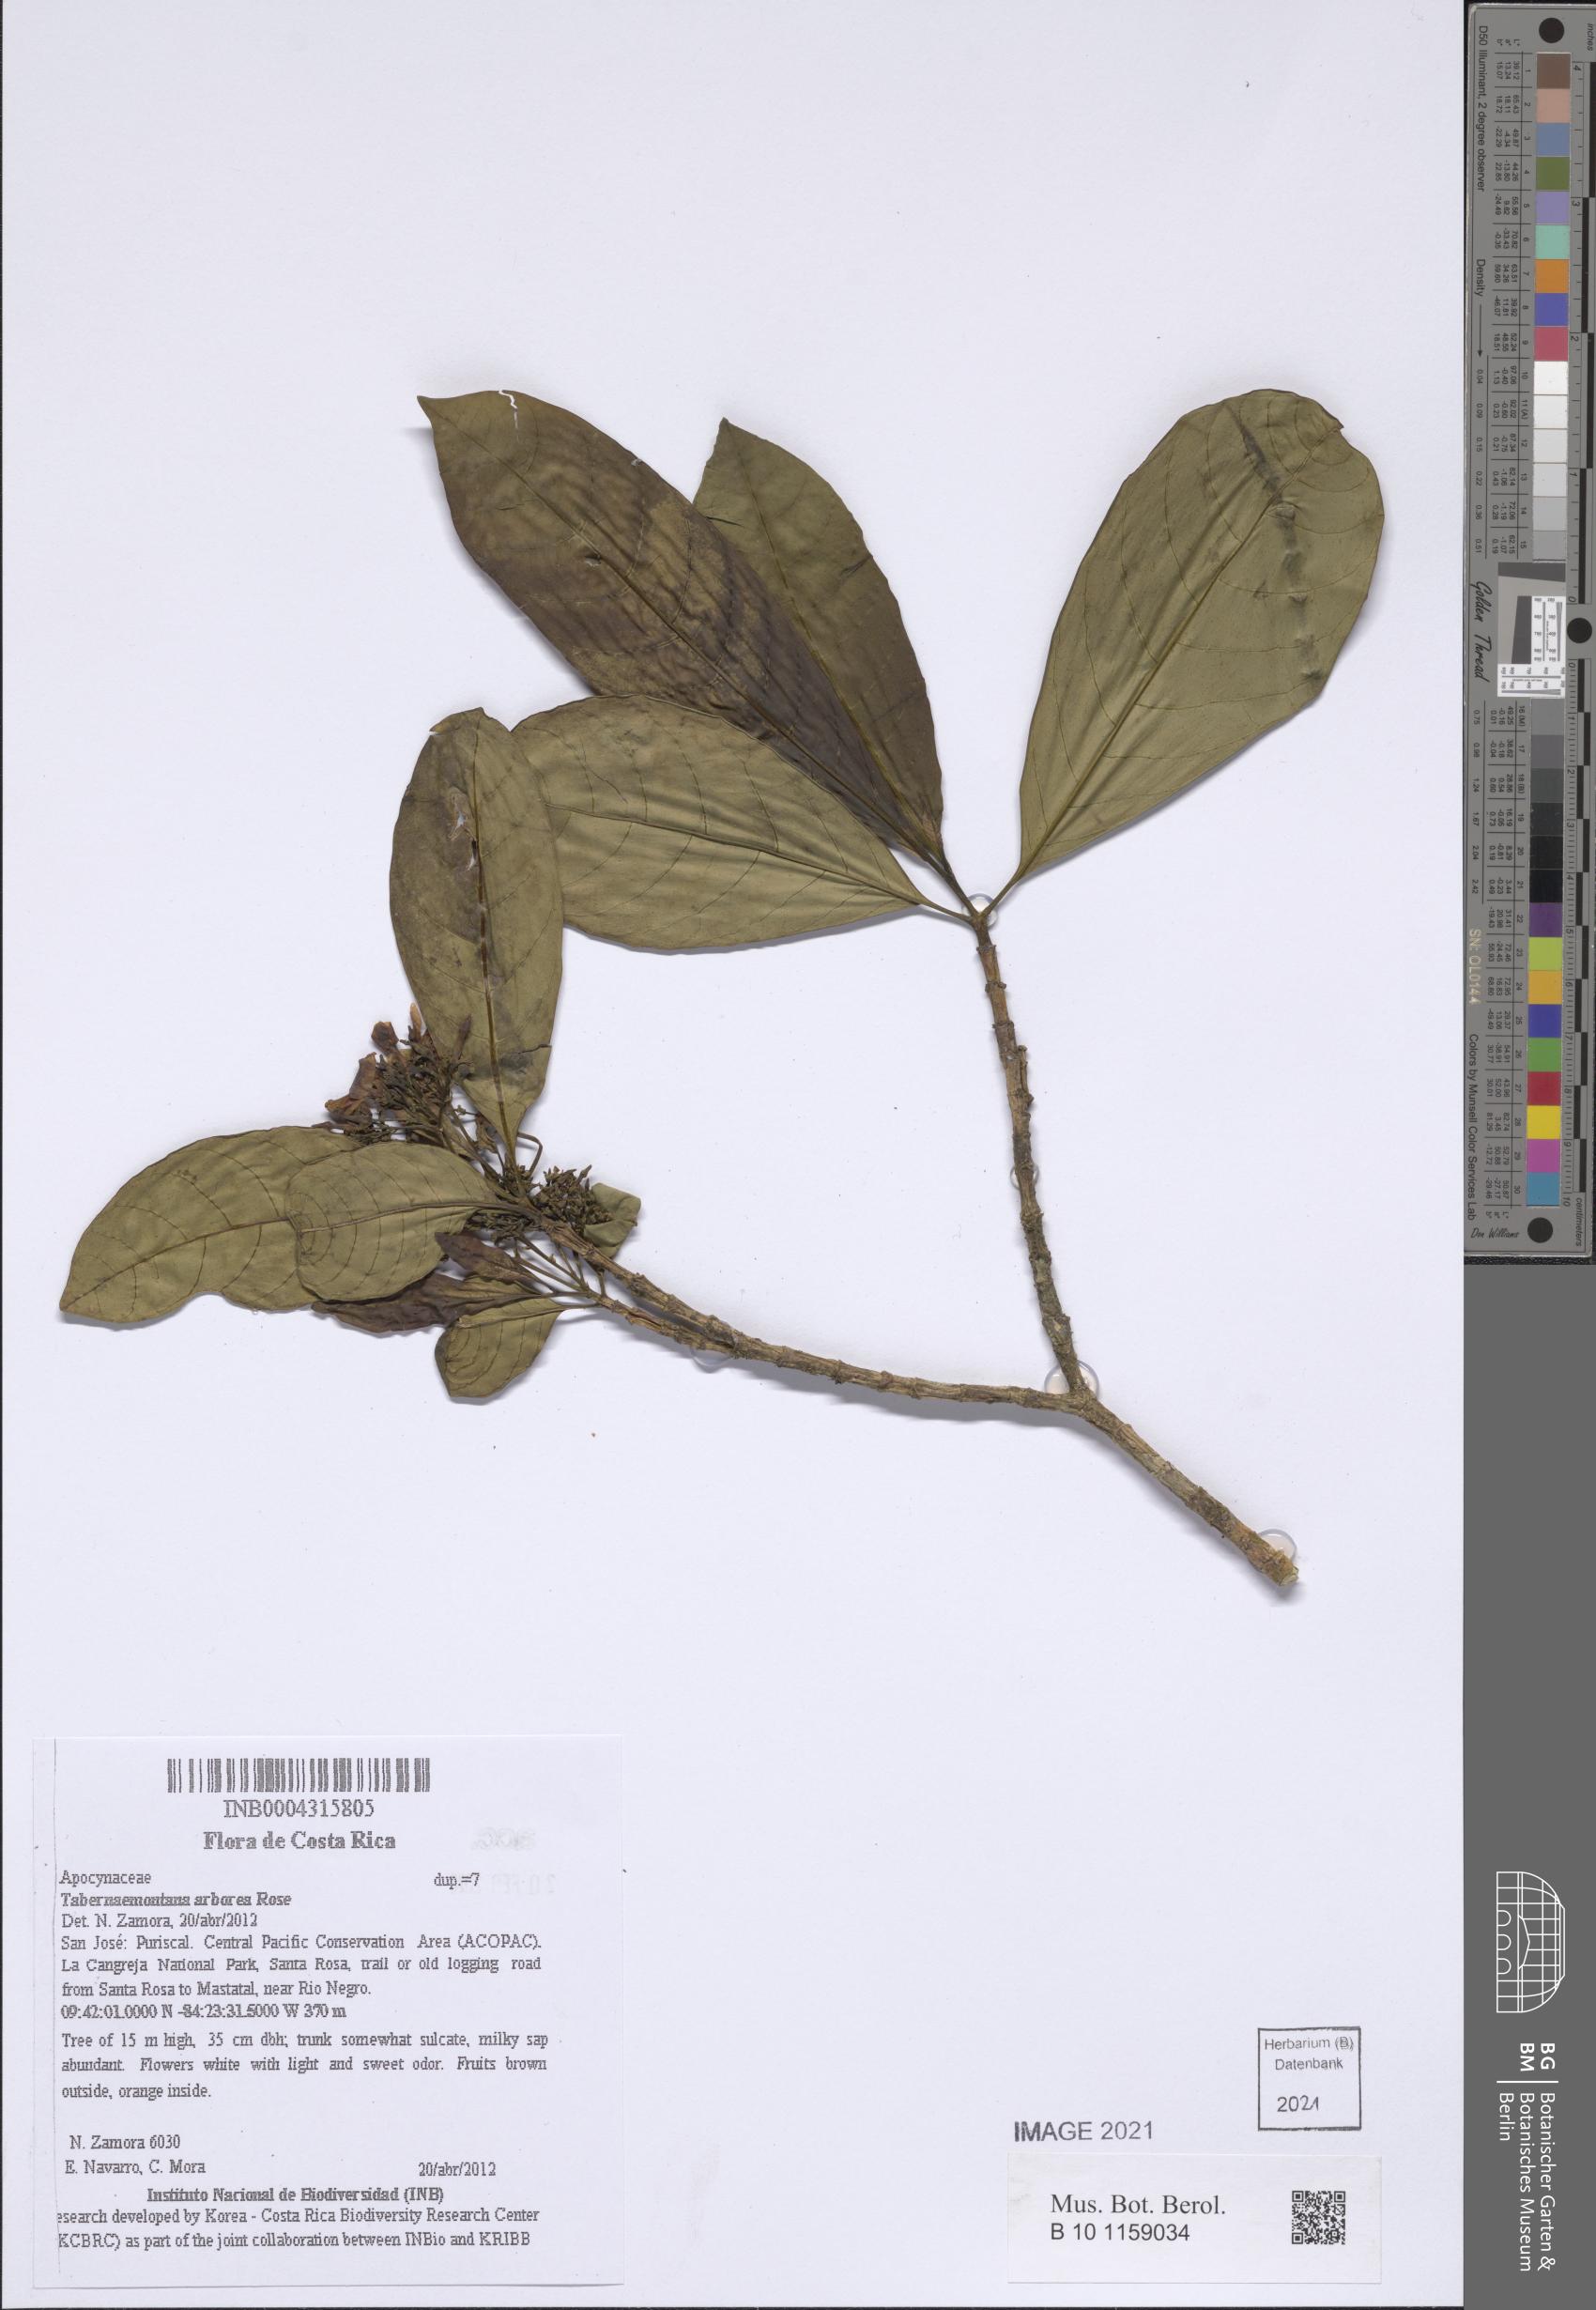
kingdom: Plantae
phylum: Tracheophyta
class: Magnoliopsida
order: Gentianales
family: Apocynaceae
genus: Tabernaemontana
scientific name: Tabernaemontana arborea
